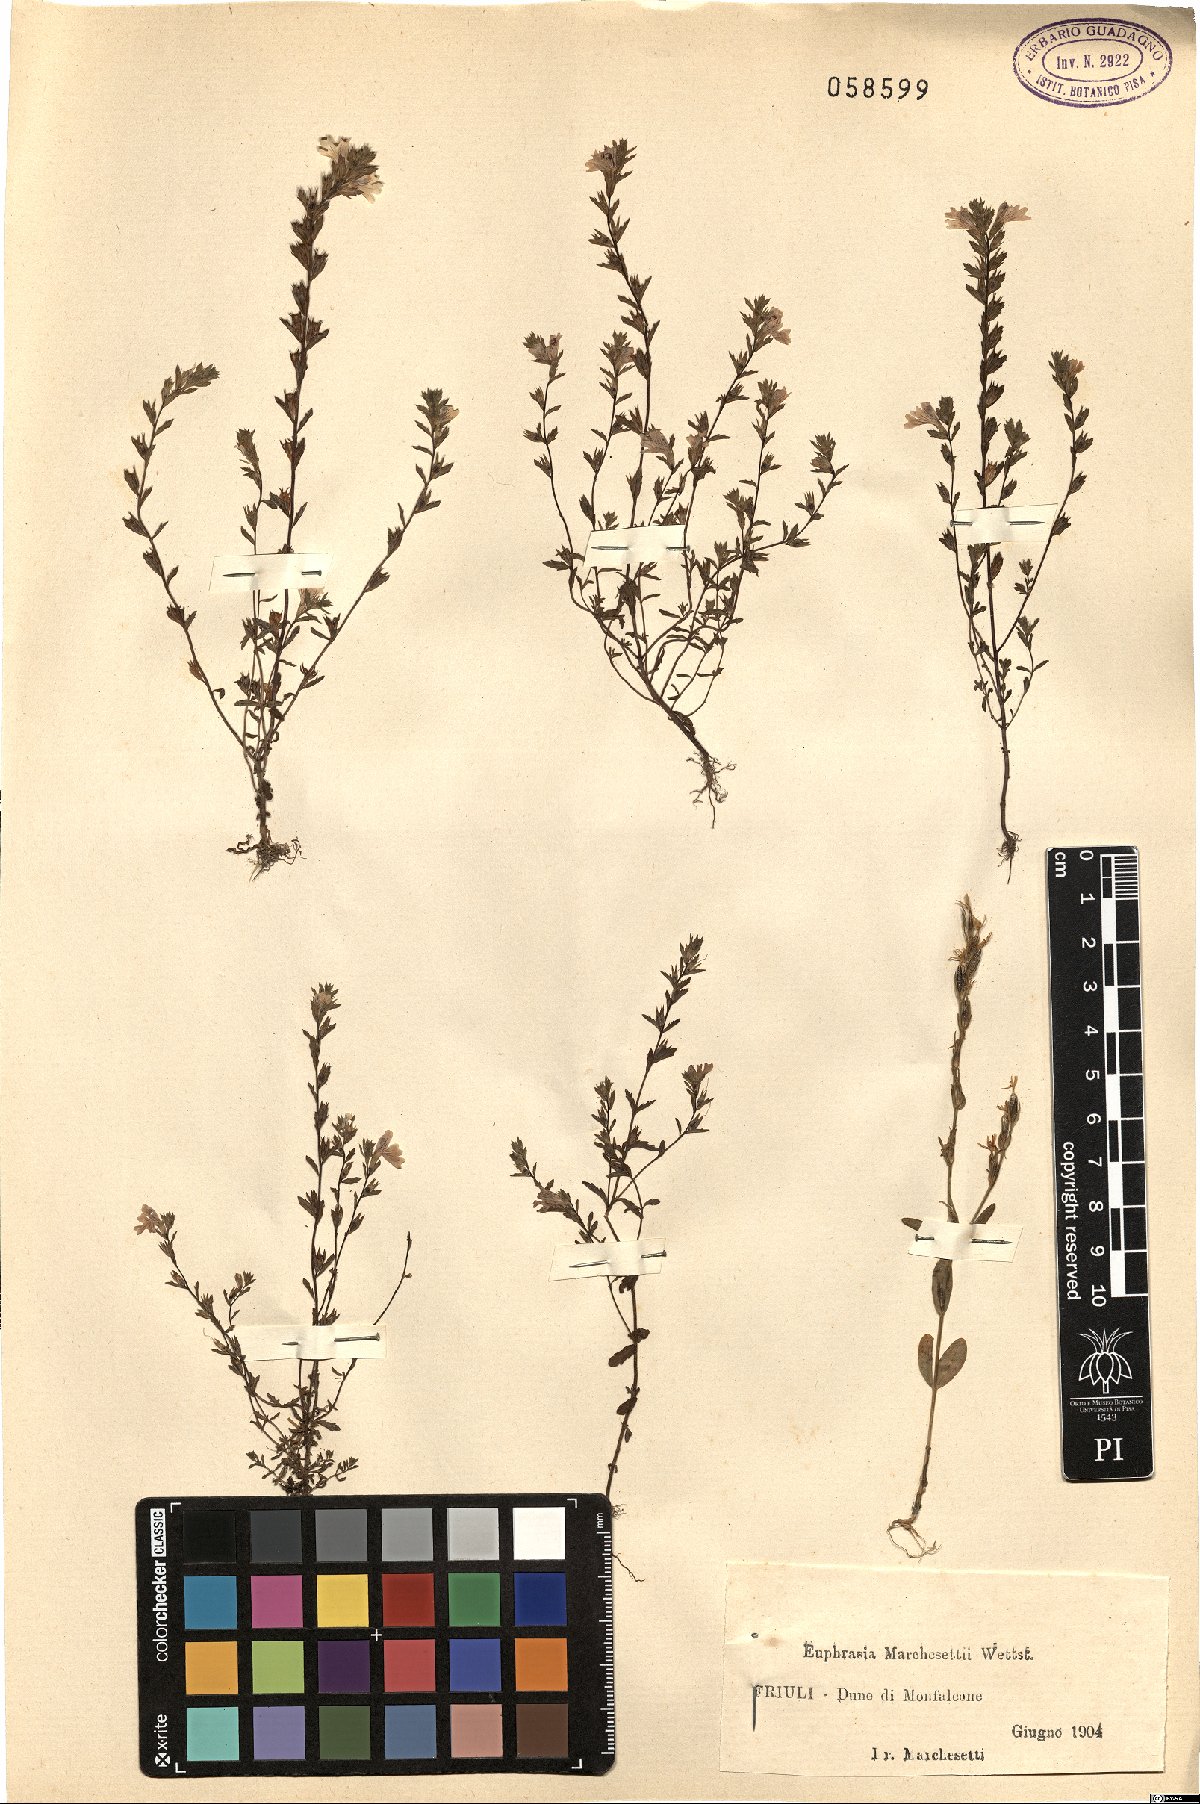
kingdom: Plantae
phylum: Tracheophyta
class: Magnoliopsida
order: Lamiales
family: Orobanchaceae
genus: Euphrasia
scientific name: Euphrasia marchesettii
